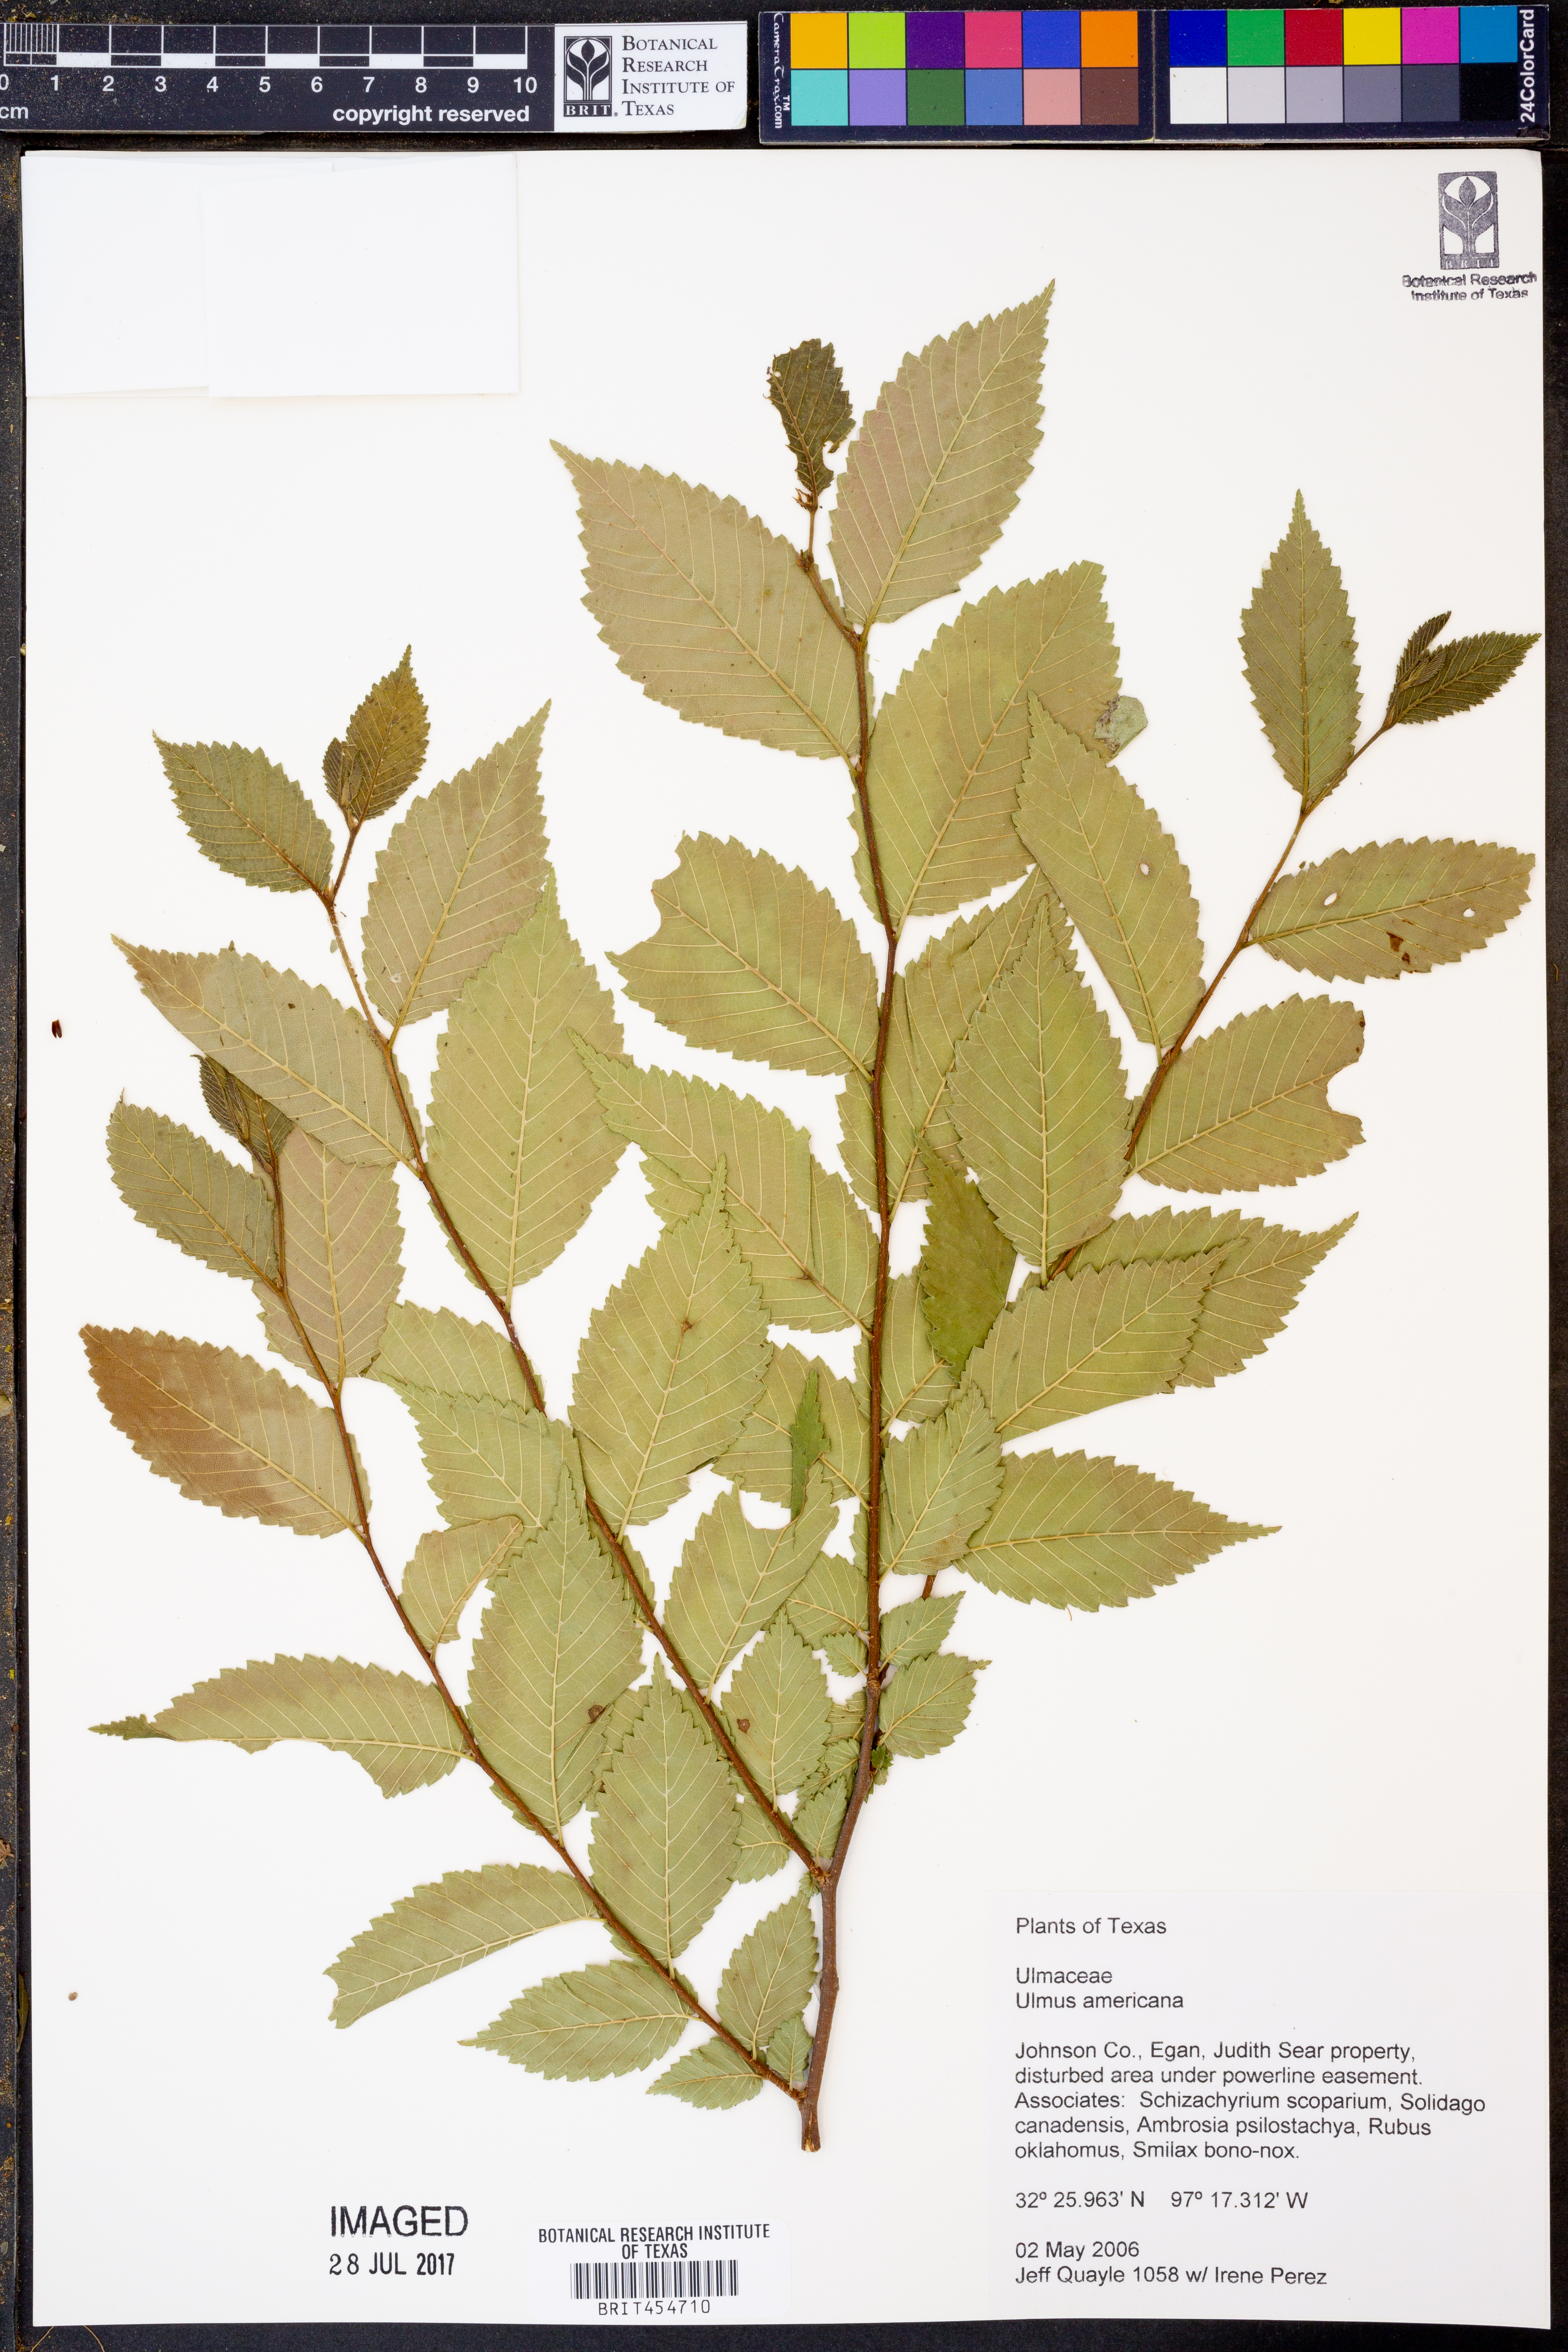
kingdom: Plantae
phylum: Tracheophyta
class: Magnoliopsida
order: Rosales
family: Ulmaceae
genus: Ulmus
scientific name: Ulmus americana
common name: American elm
